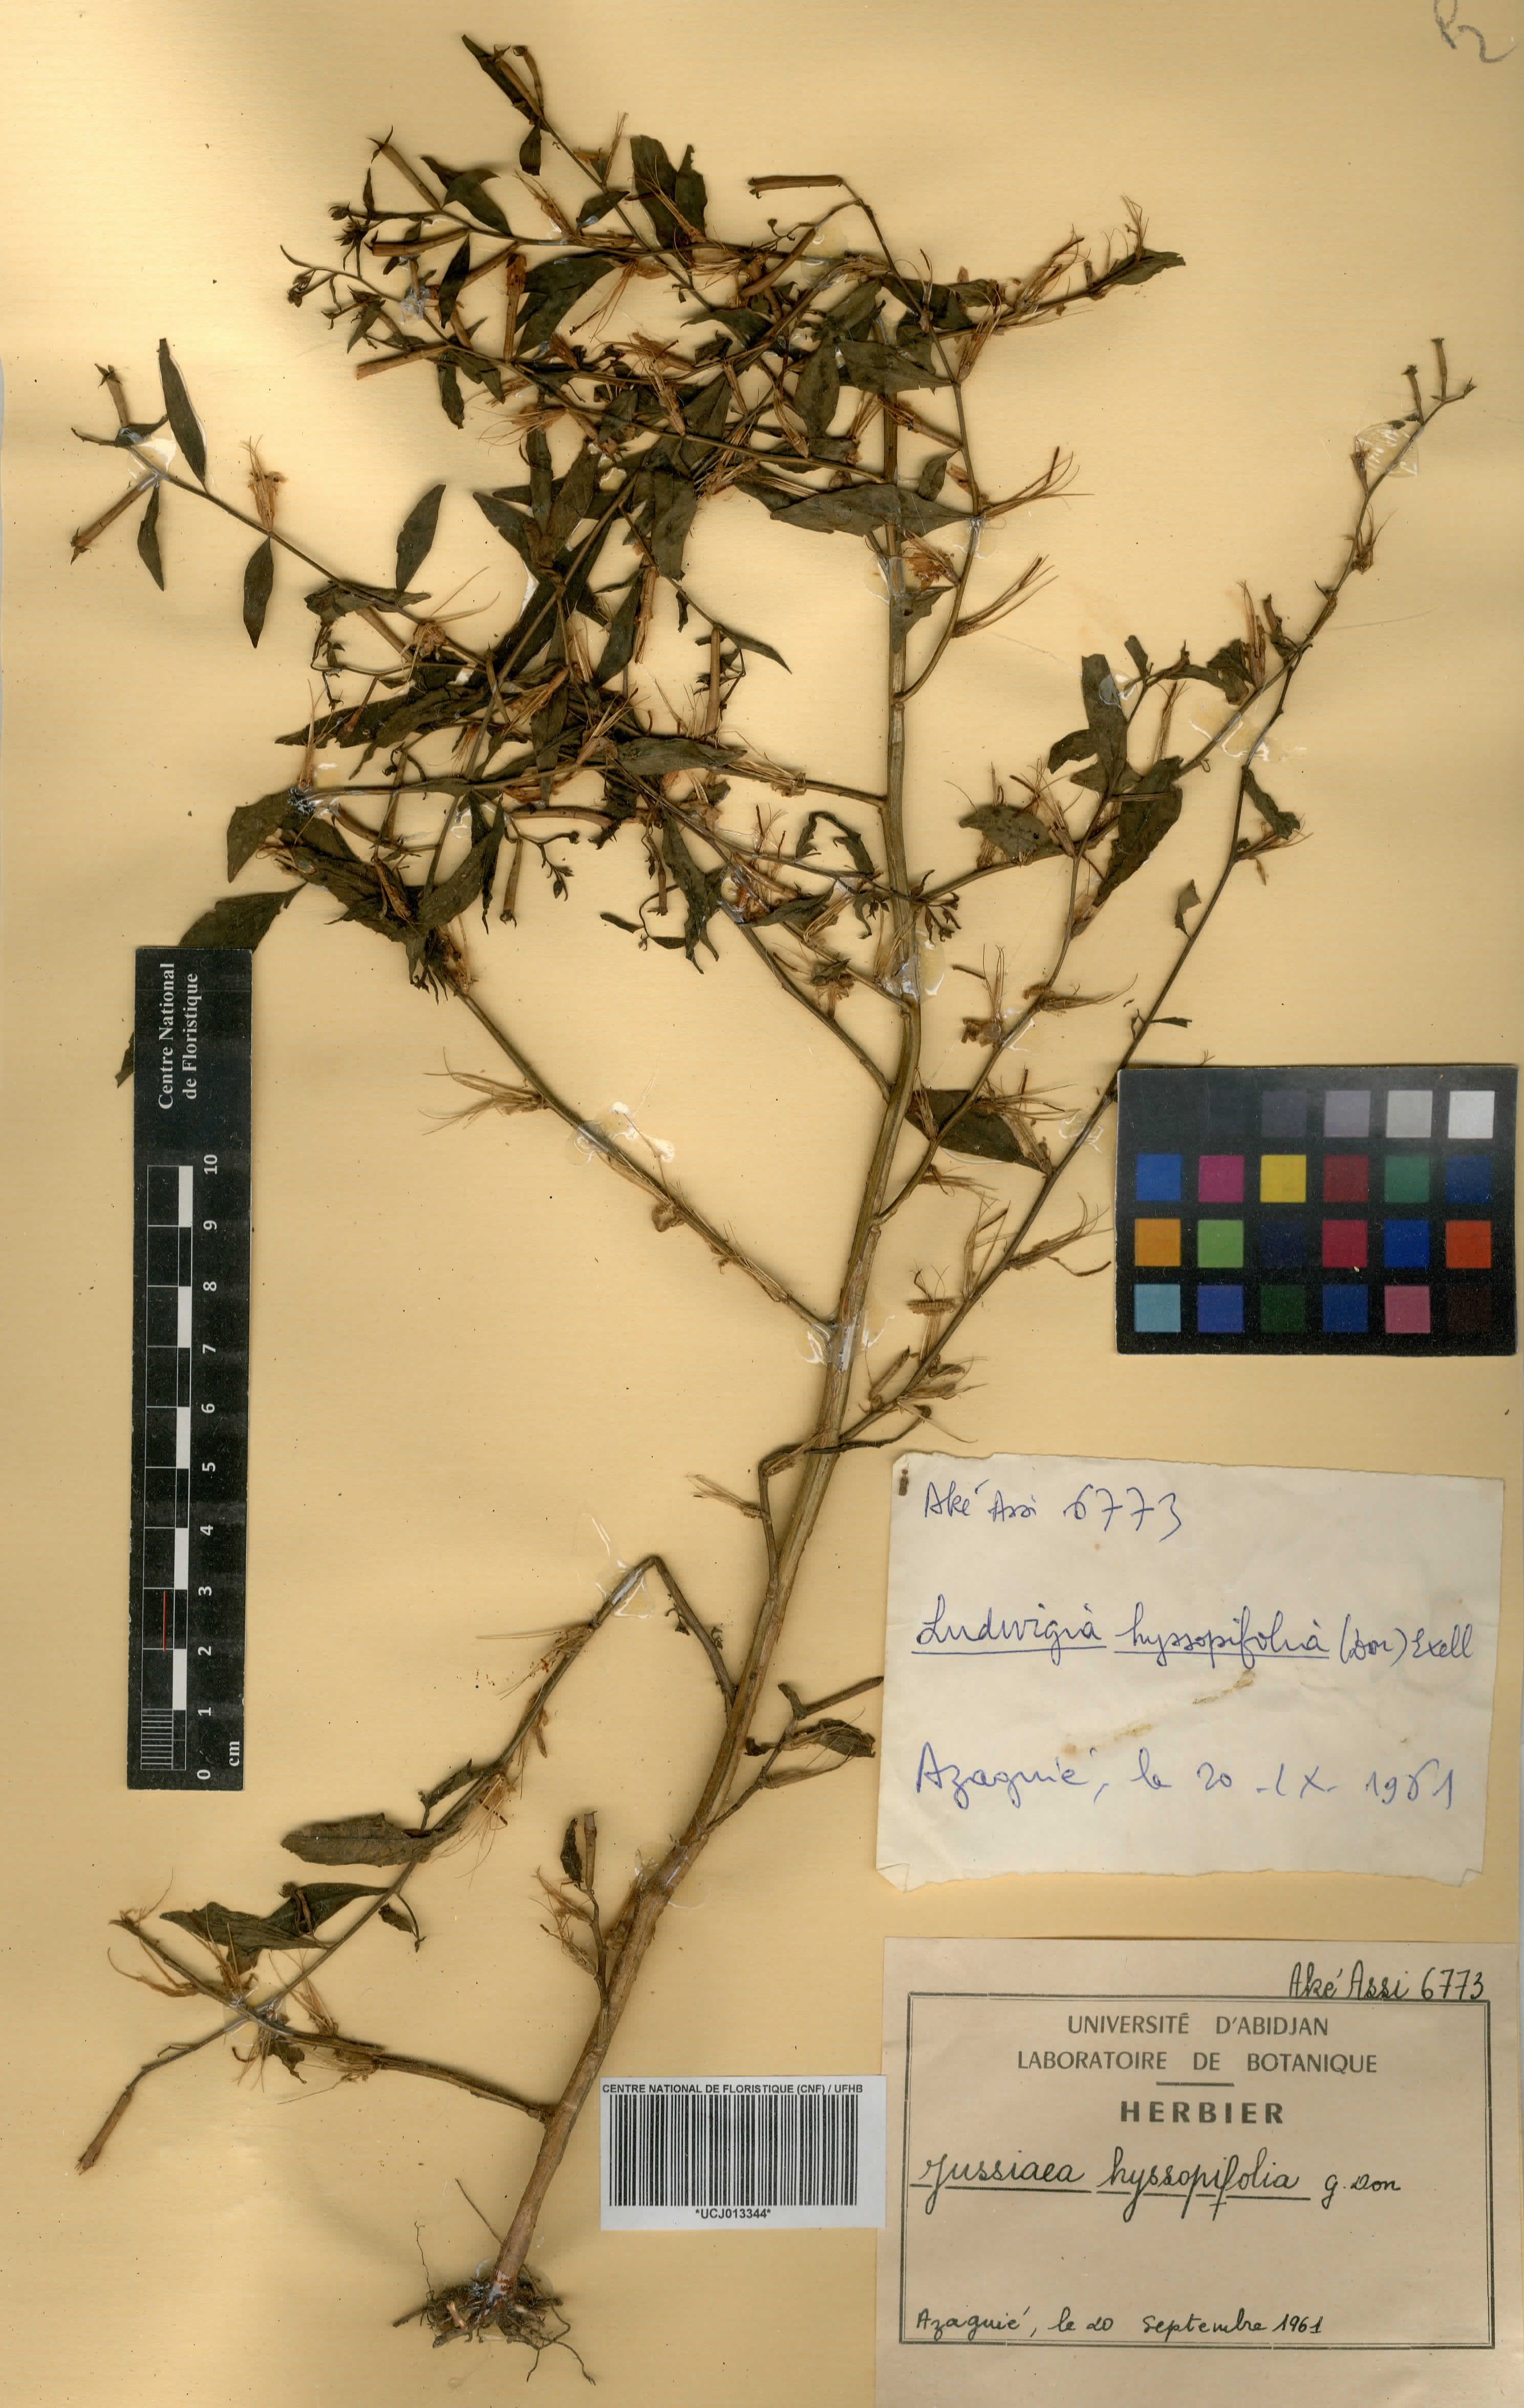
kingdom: Plantae
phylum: Tracheophyta
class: Magnoliopsida
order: Myrtales
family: Onagraceae
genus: Ludwigia
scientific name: Ludwigia hyssopifolia
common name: Linear leaf water primrose
